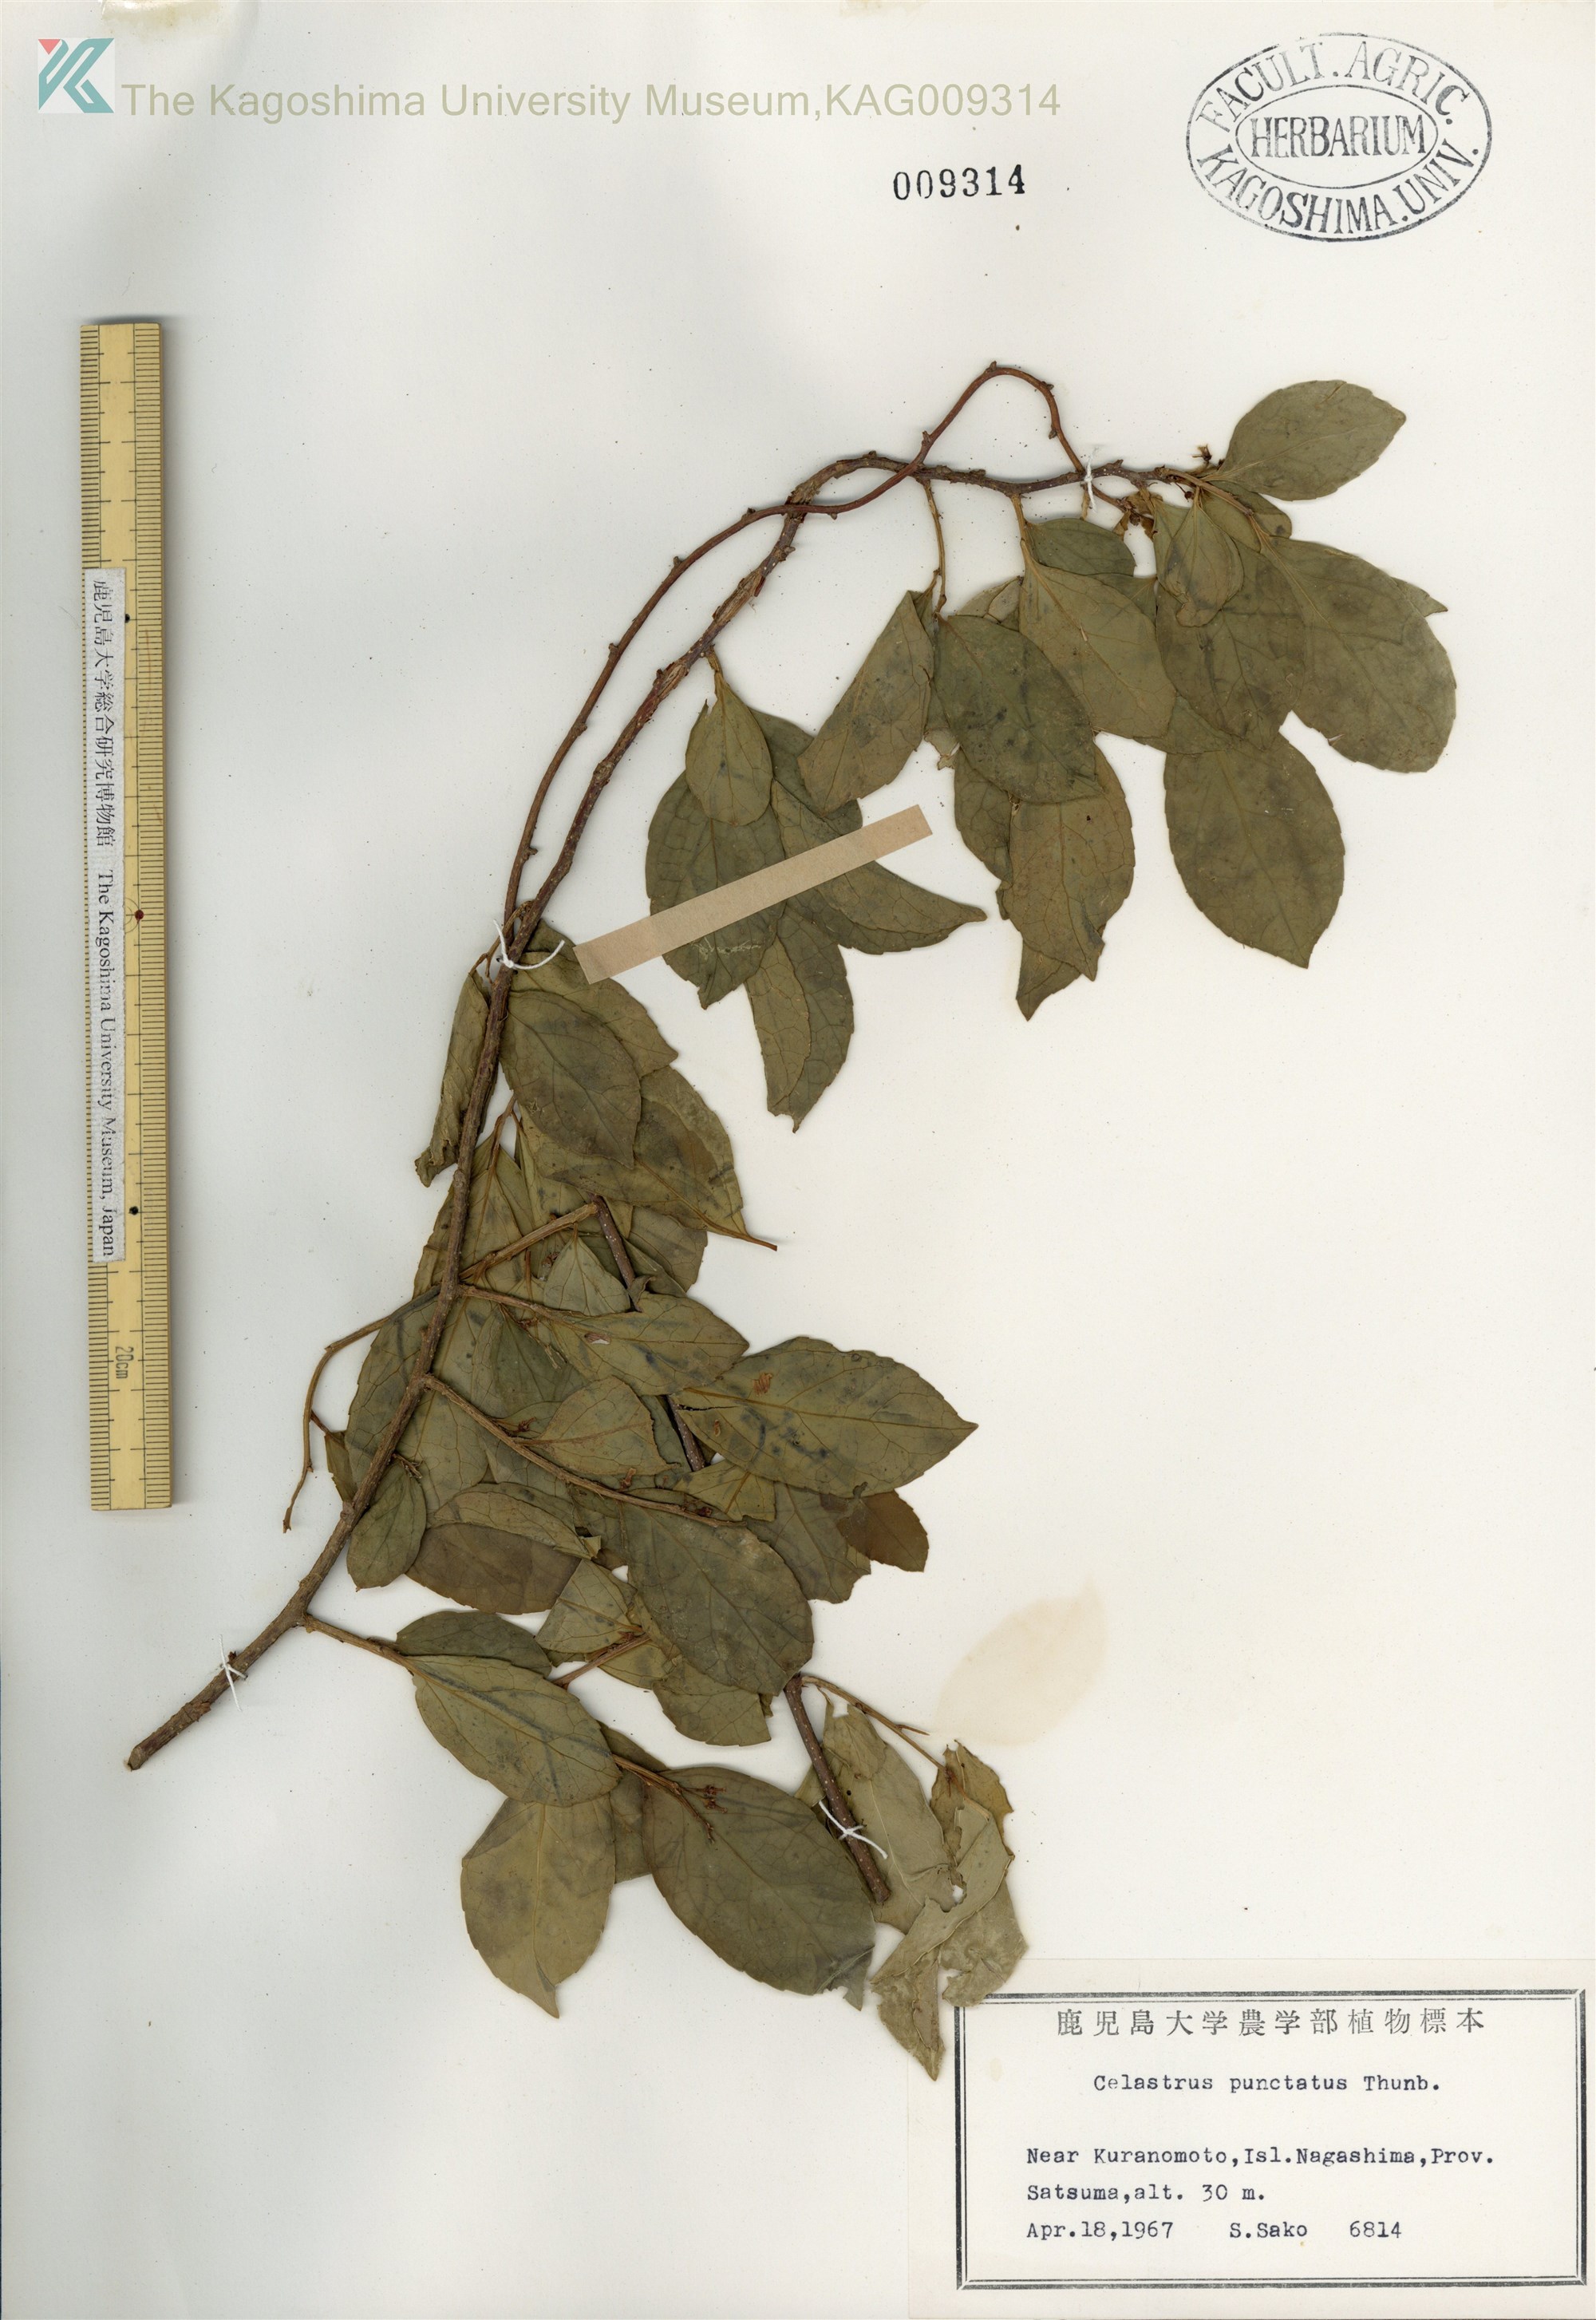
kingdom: Plantae
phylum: Tracheophyta
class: Magnoliopsida
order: Celastrales
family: Celastraceae
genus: Celastrus
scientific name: Celastrus punctatus
